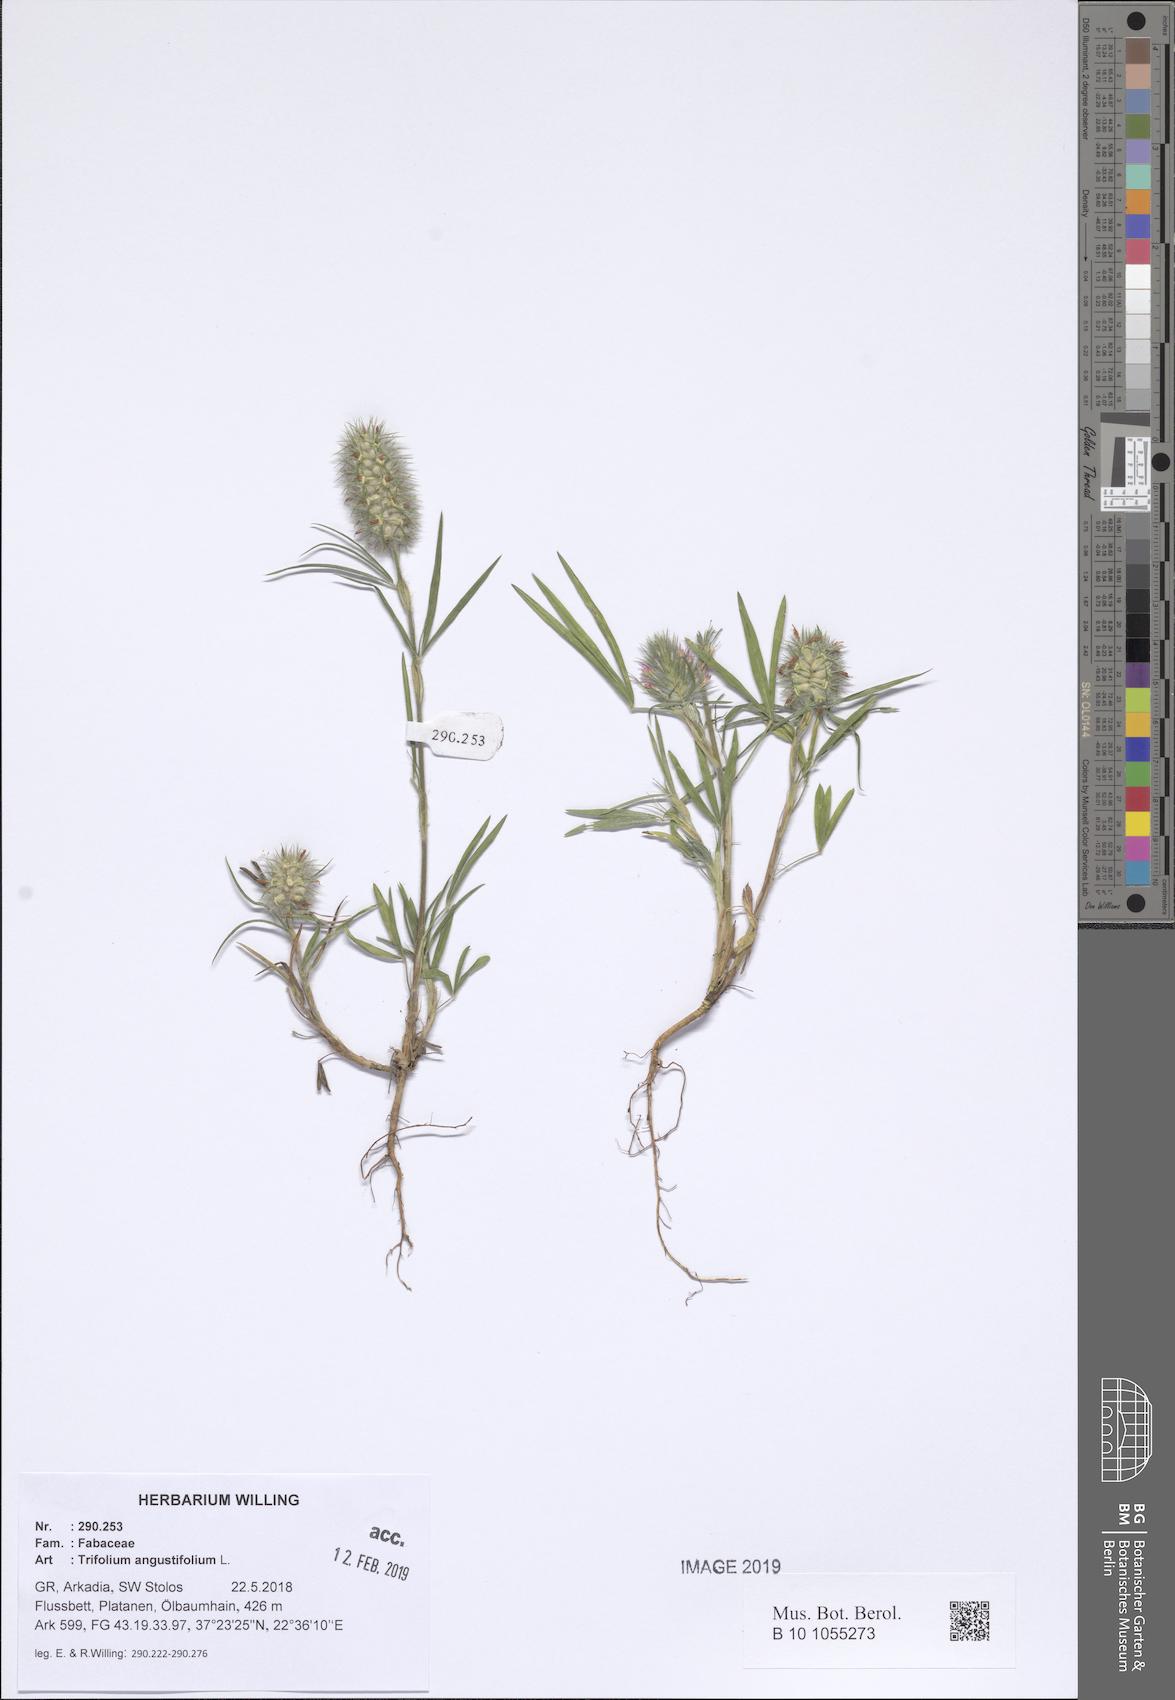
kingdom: Plantae
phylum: Tracheophyta
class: Magnoliopsida
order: Fabales
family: Fabaceae
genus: Trifolium
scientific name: Trifolium angustifolium
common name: Narrow clover
